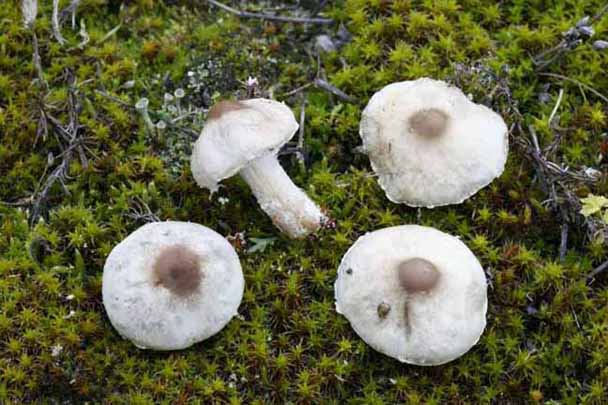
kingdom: Fungi
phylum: Basidiomycota
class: Agaricomycetes
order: Agaricales
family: Agaricaceae
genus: Lepiota
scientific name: Lepiota erminea
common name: hvid parasolhat
